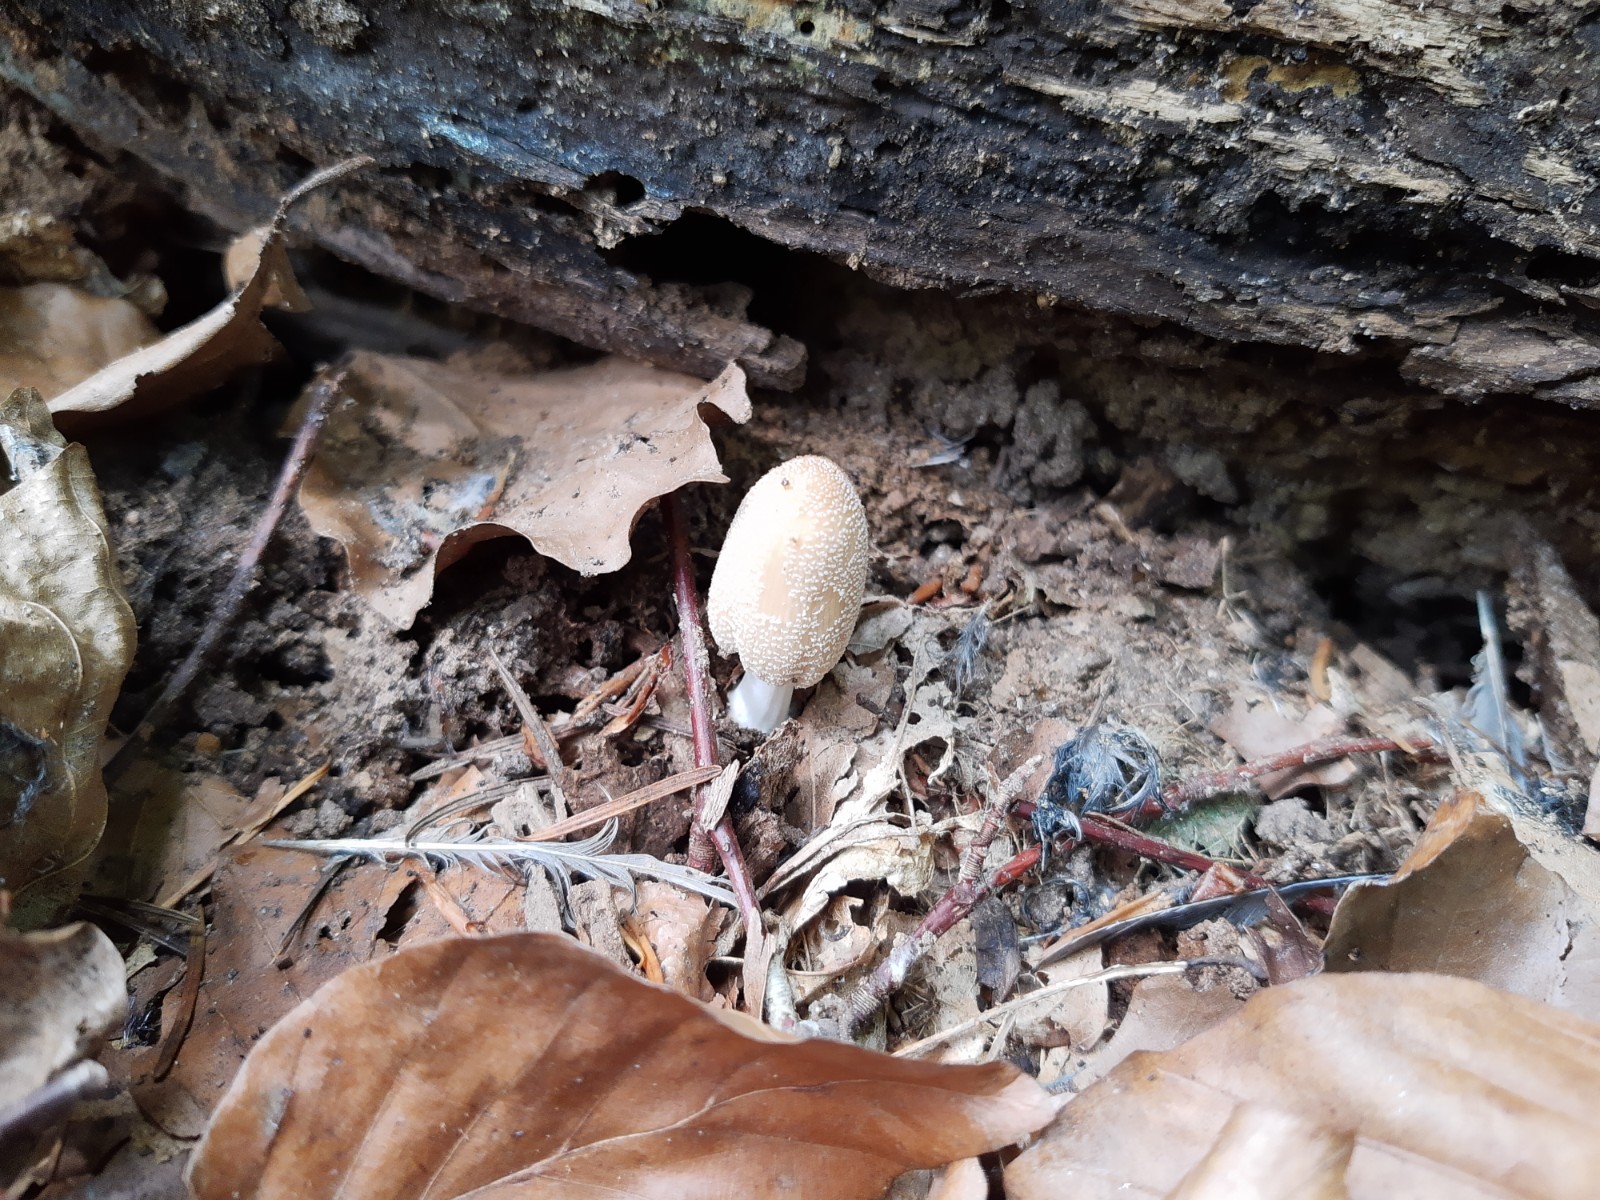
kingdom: Fungi
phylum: Basidiomycota
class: Agaricomycetes
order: Agaricales
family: Psathyrellaceae
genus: Coprinellus
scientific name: Coprinellus
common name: blækhat
